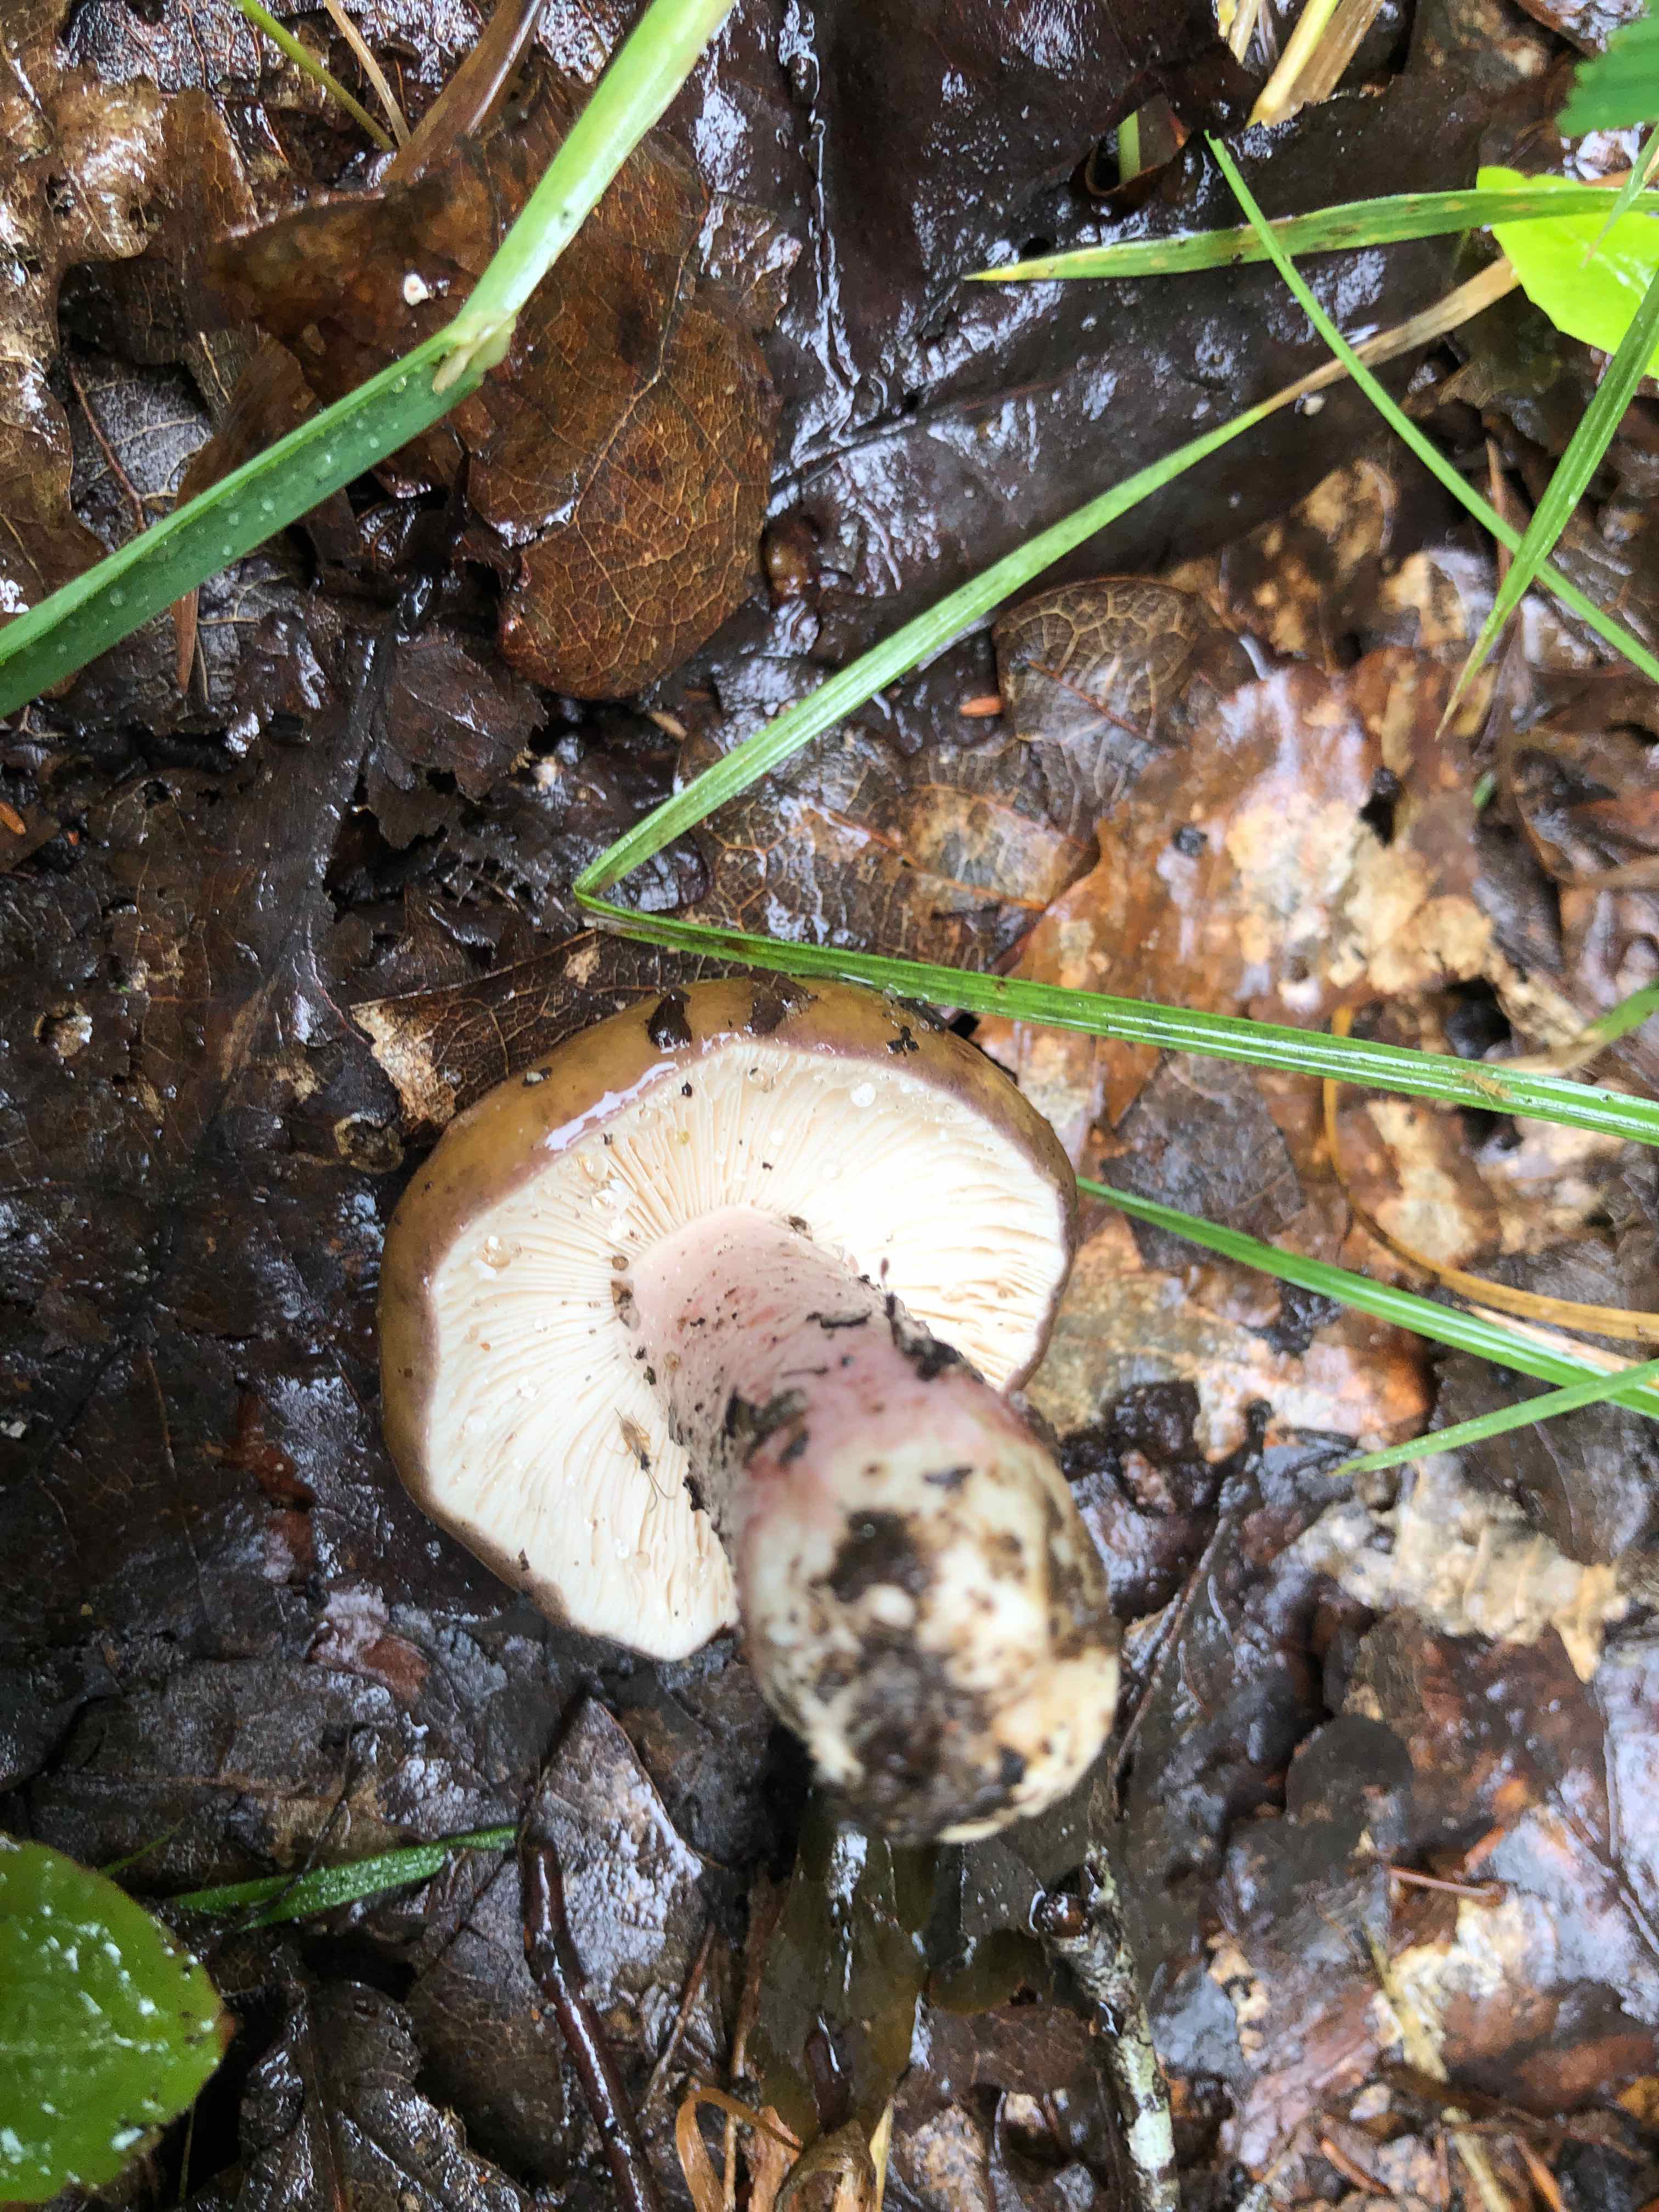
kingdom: Fungi
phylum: Basidiomycota
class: Agaricomycetes
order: Russulales
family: Russulaceae
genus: Russula
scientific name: Russula
